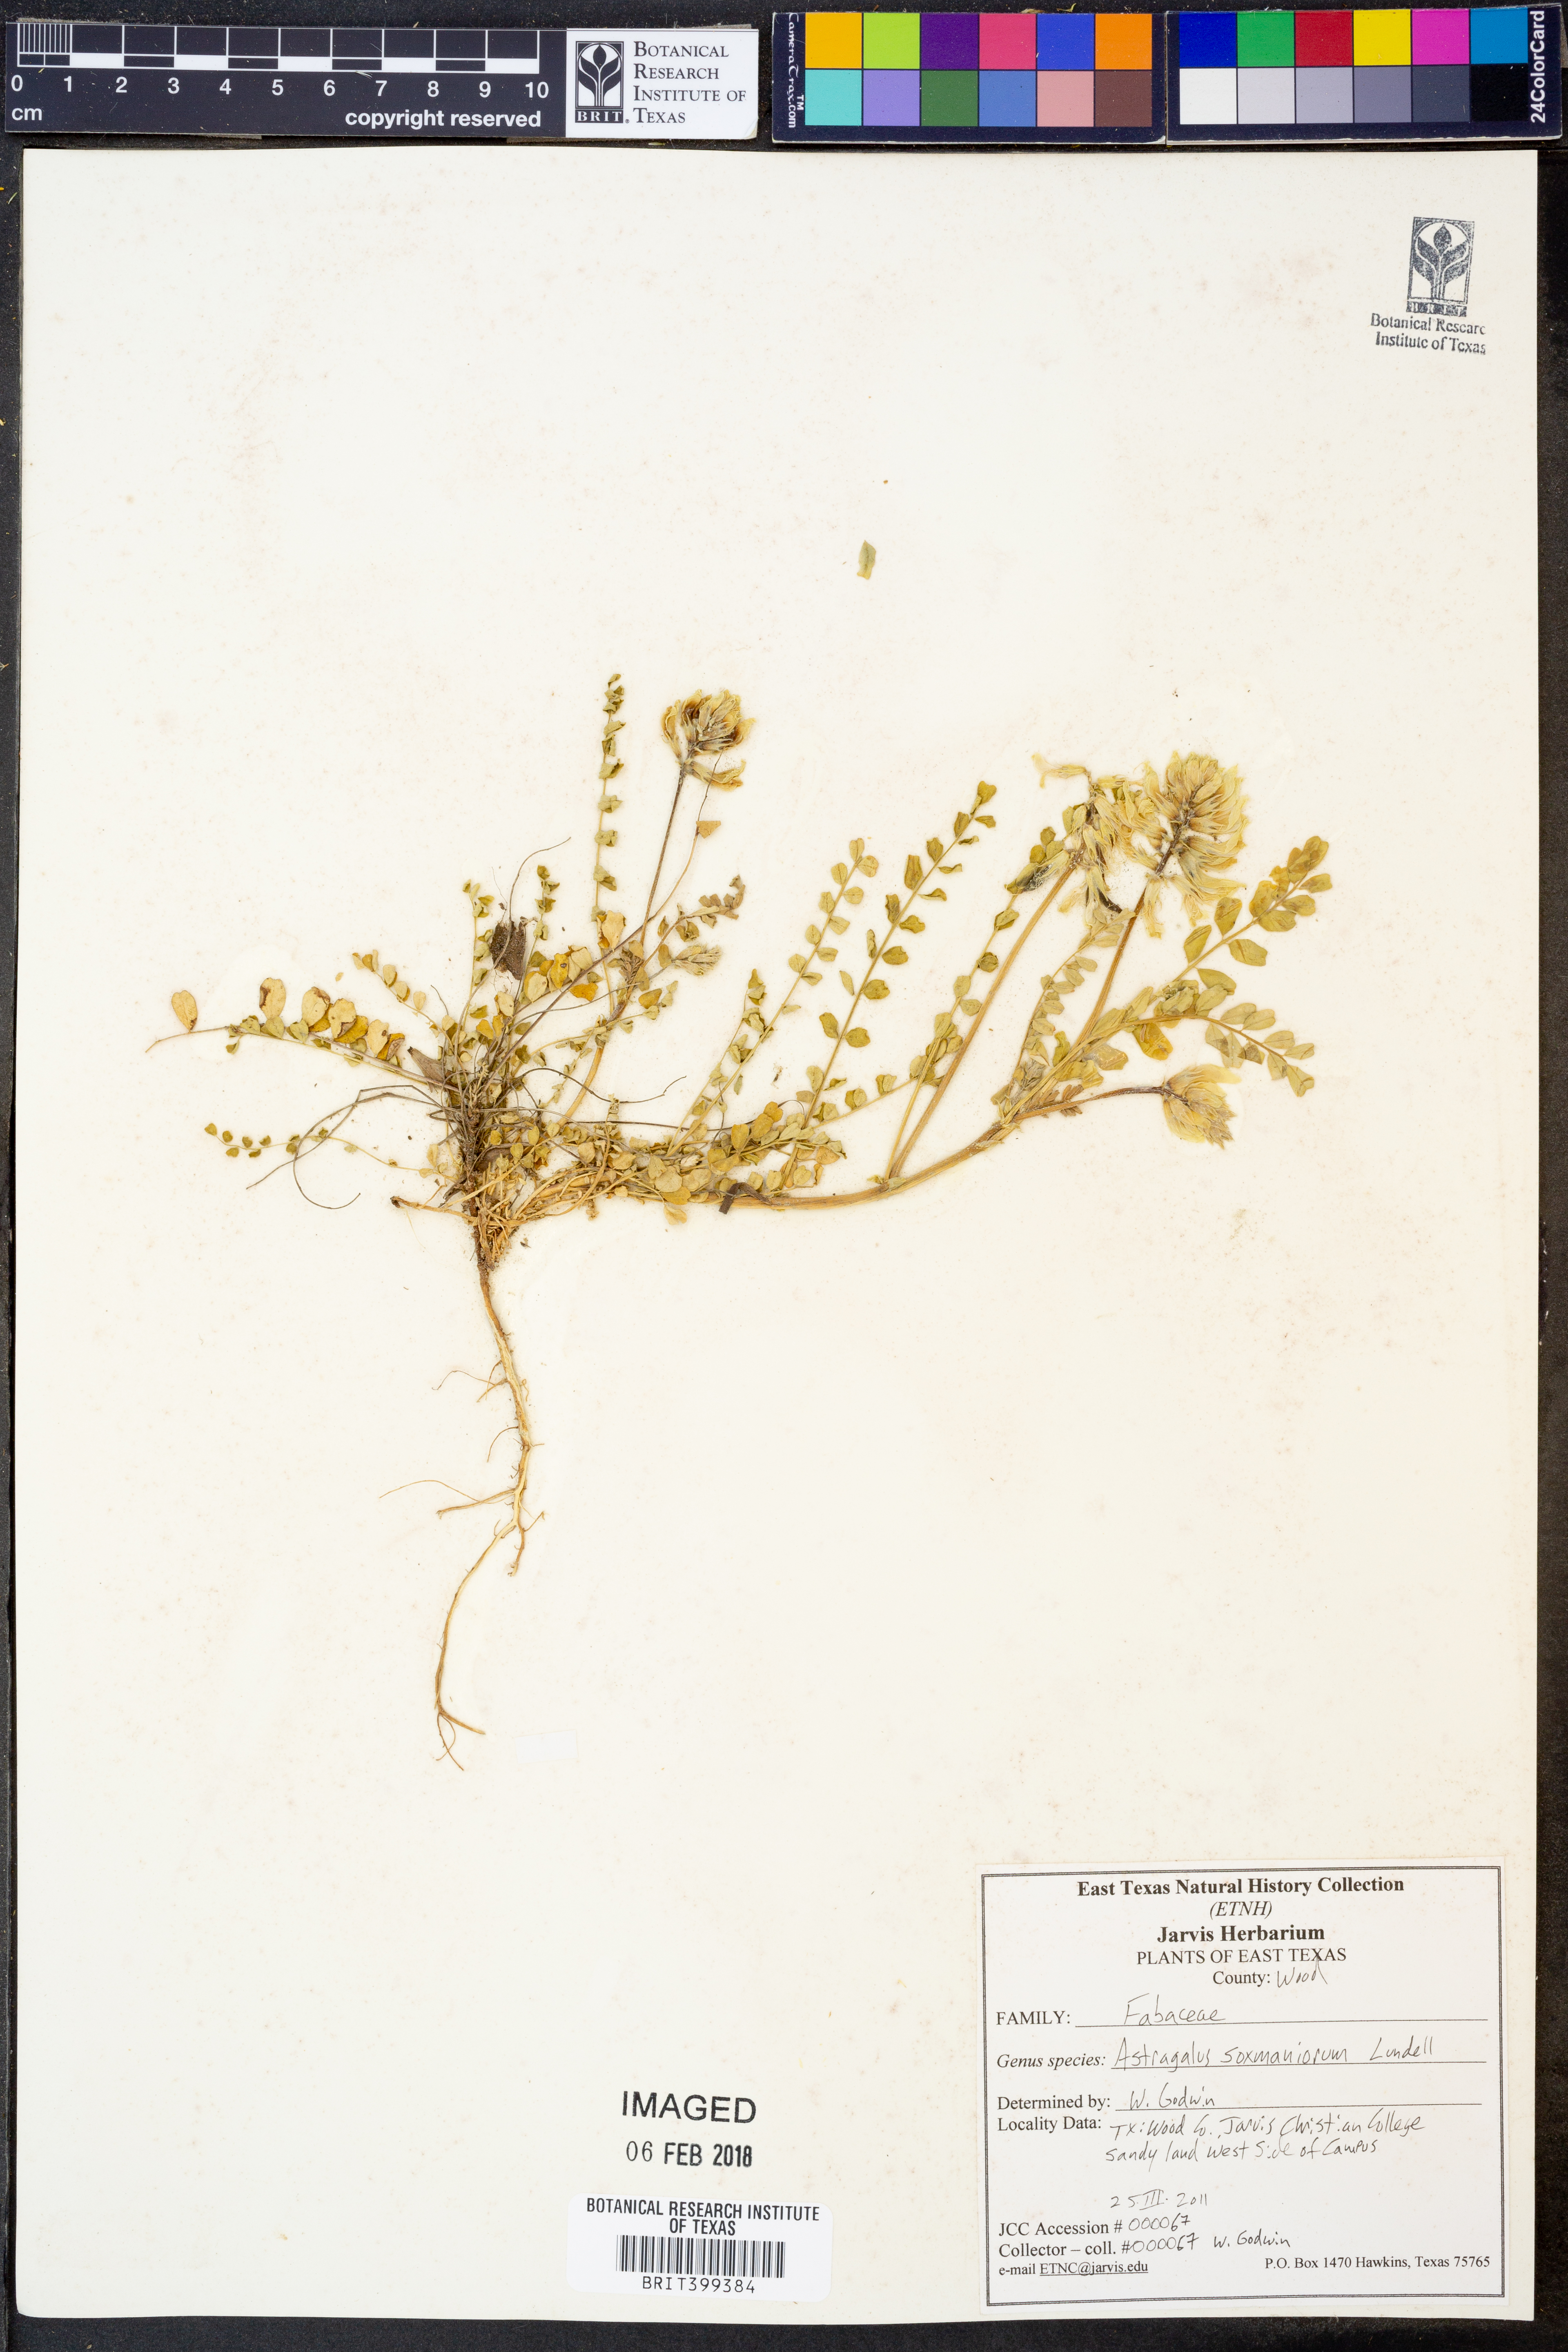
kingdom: Plantae
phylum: Tracheophyta
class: Magnoliopsida
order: Fabales
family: Fabaceae
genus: Astragalus
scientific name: Astragalus soxmaniorum
